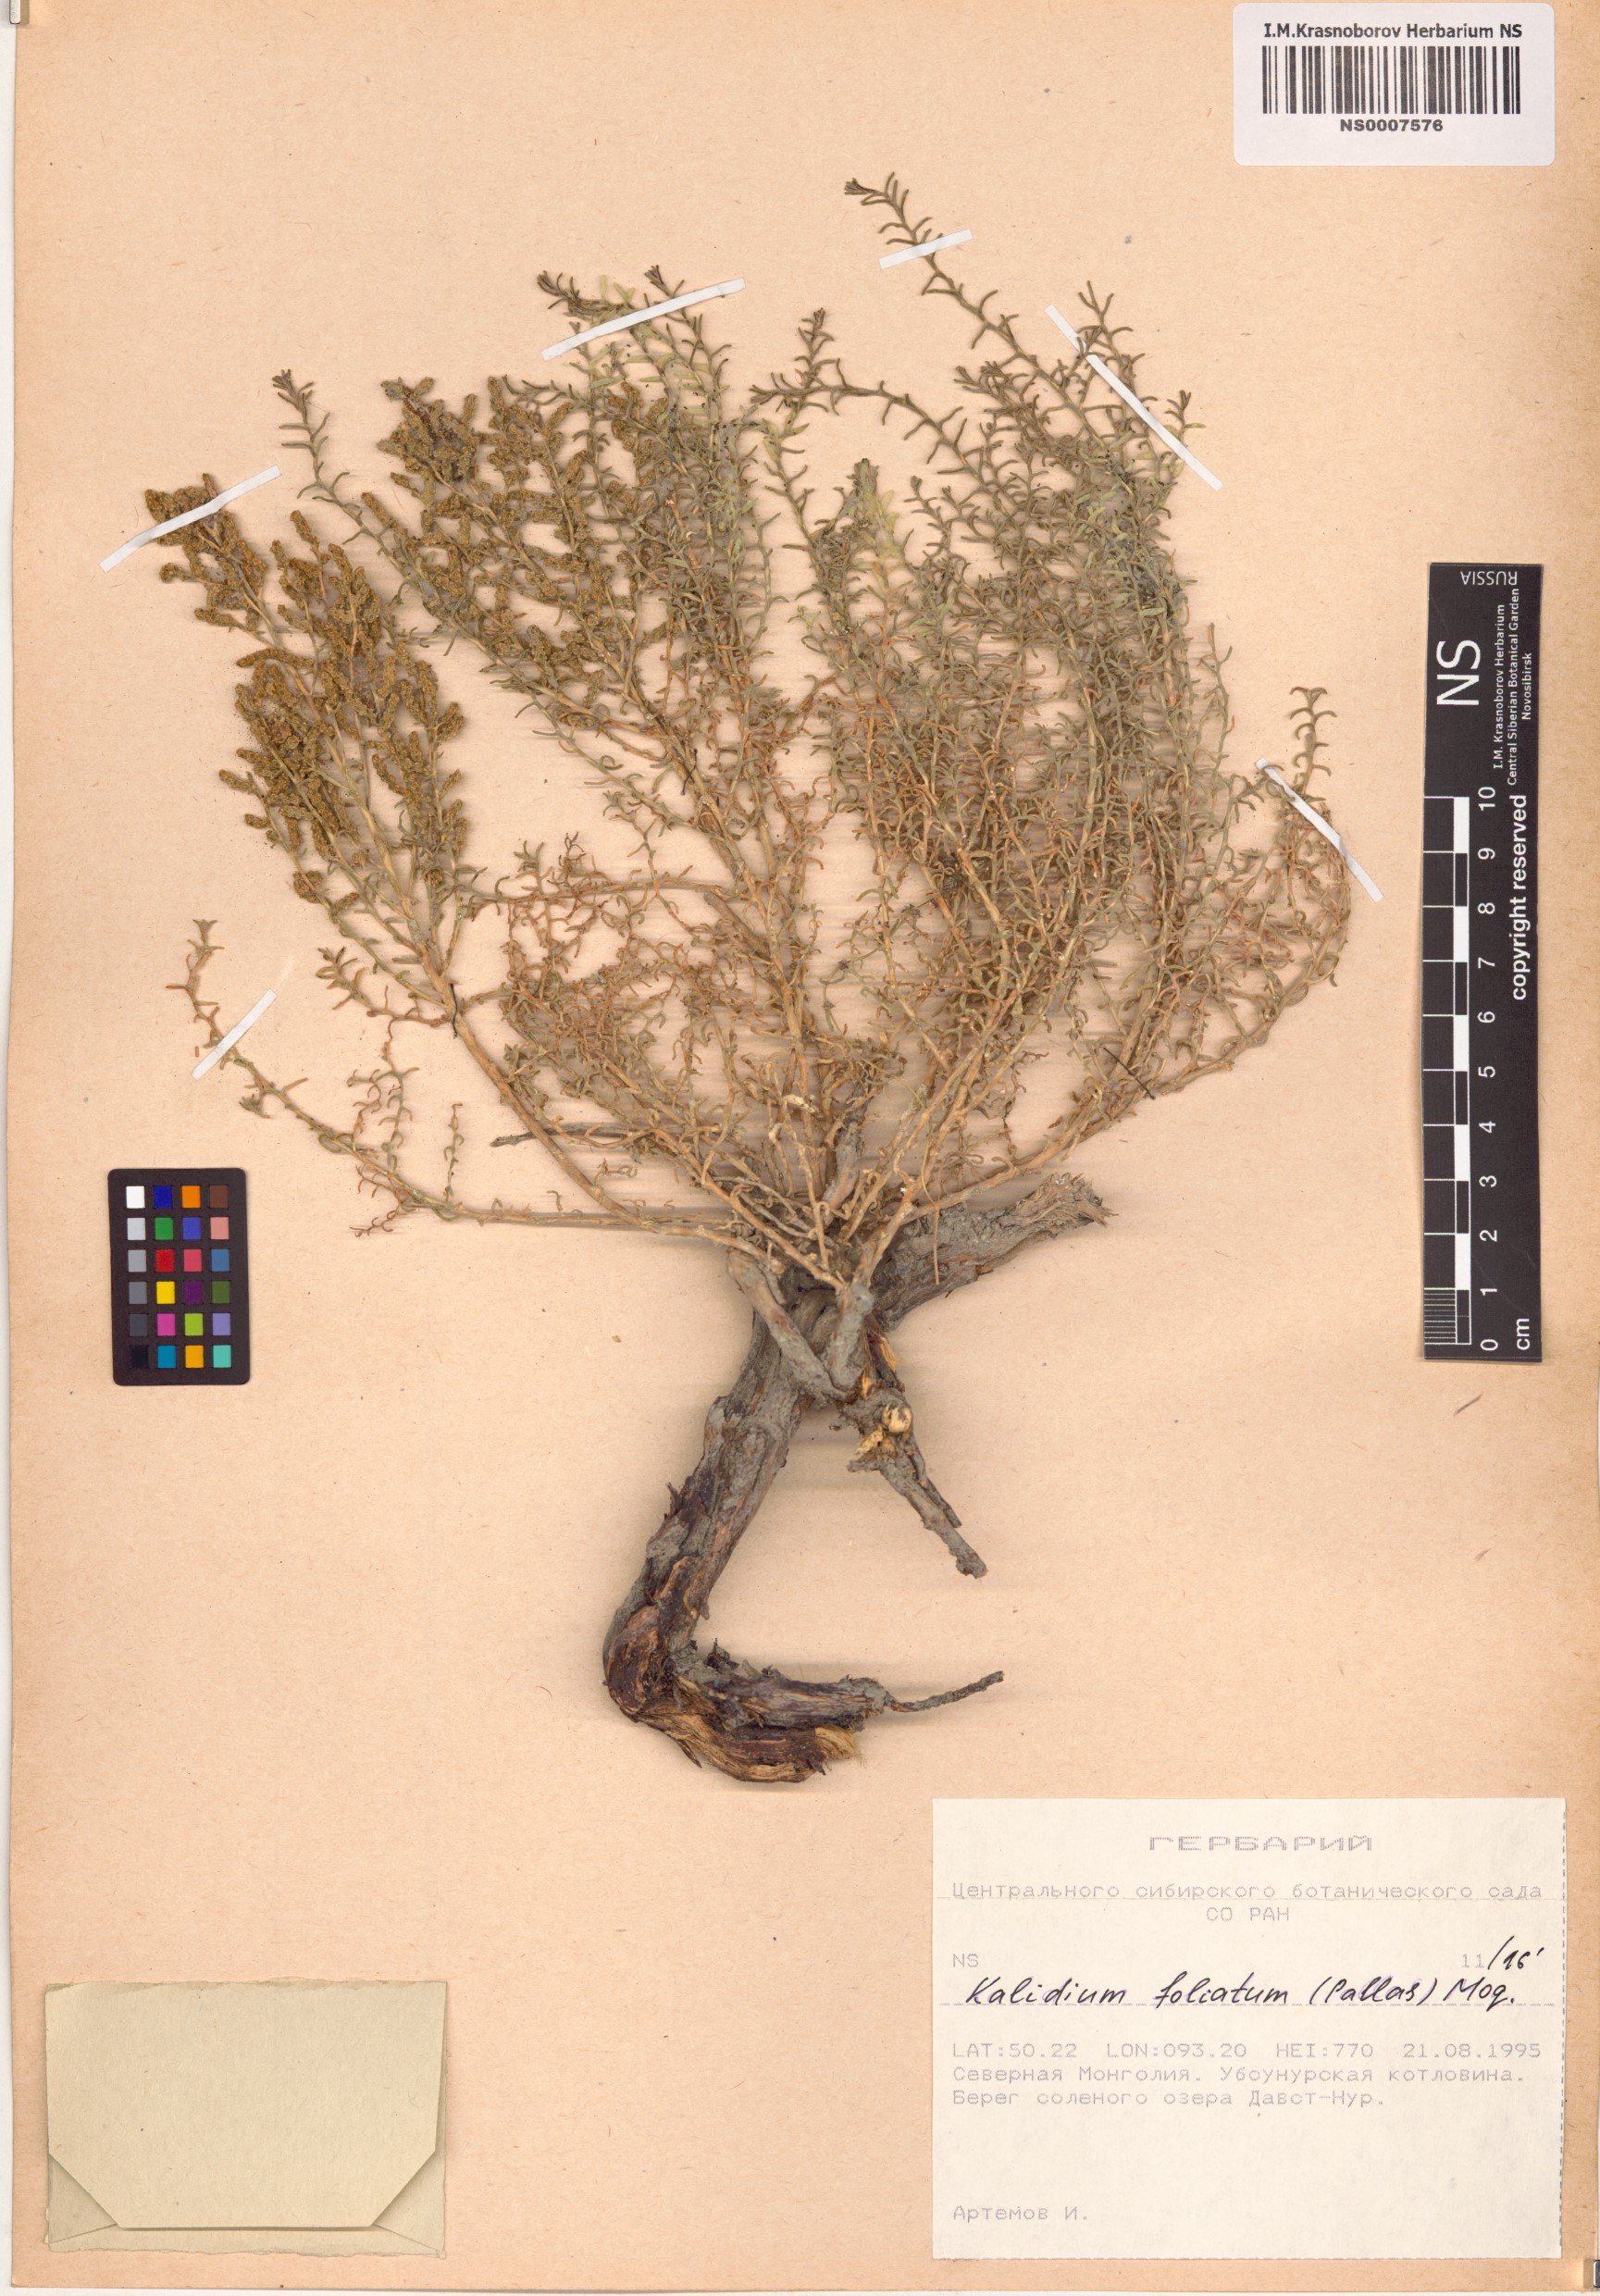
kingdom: Plantae
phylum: Tracheophyta
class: Magnoliopsida
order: Caryophyllales
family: Amaranthaceae
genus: Kalidium
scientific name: Kalidium foliatum
